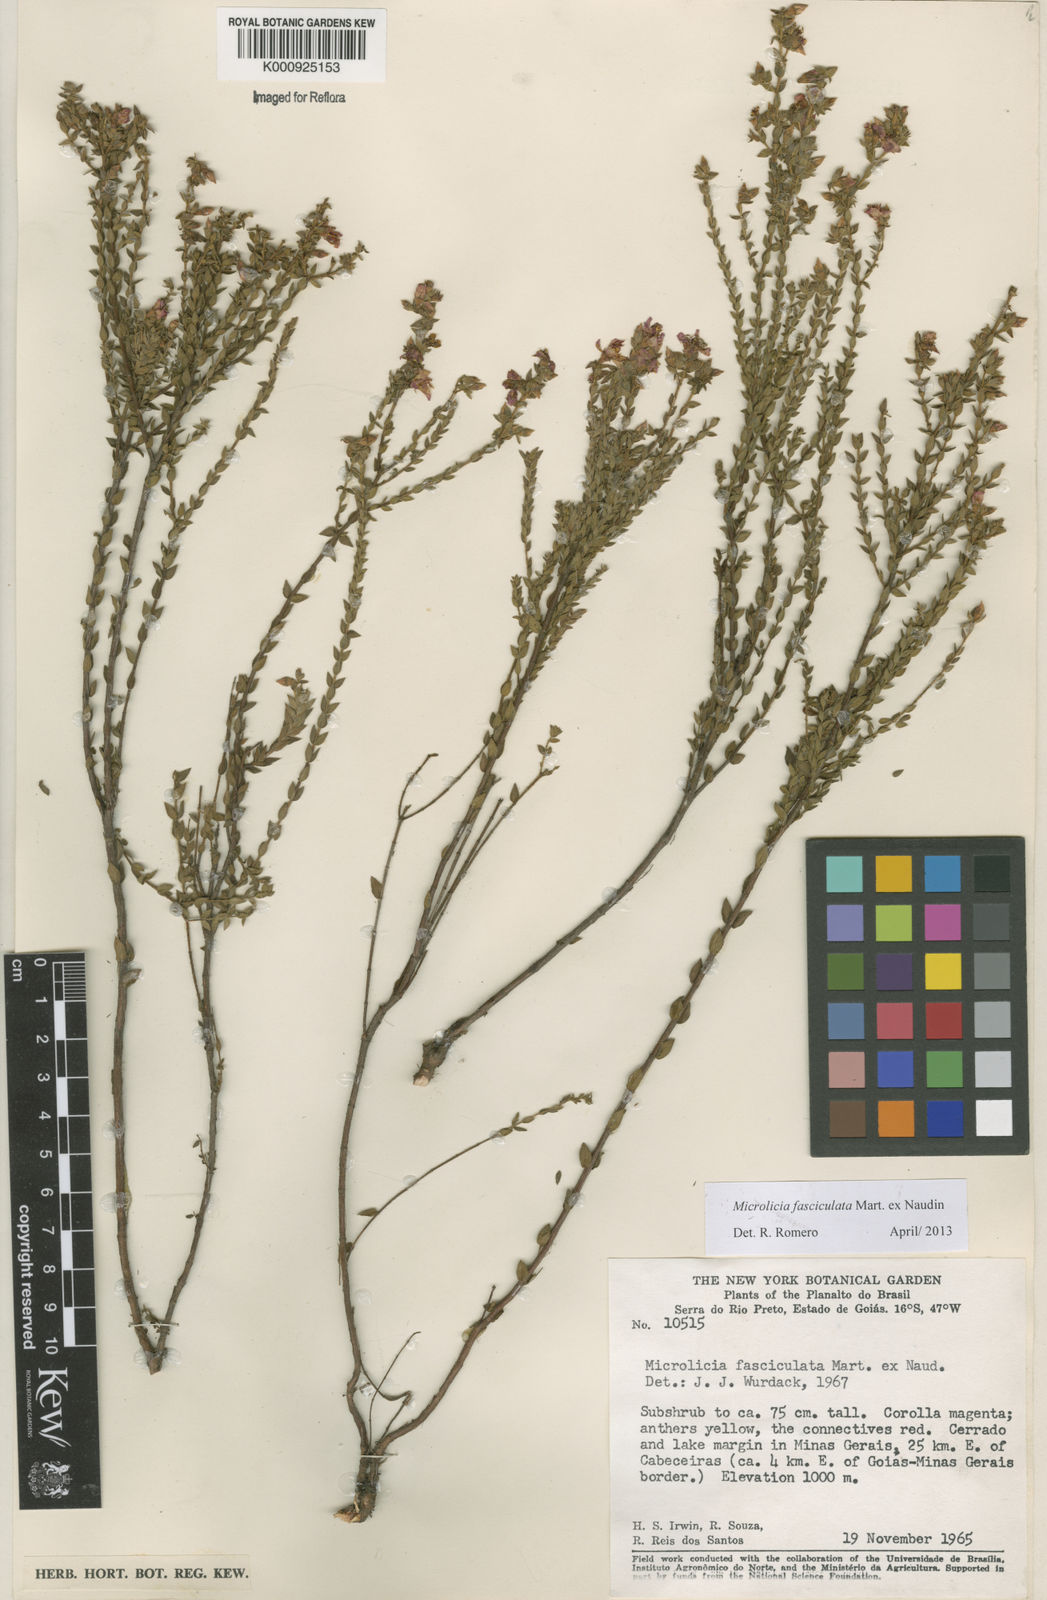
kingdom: Plantae
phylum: Tracheophyta
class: Magnoliopsida
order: Myrtales
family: Melastomataceae
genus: Microlicia
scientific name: Microlicia fasciculata
